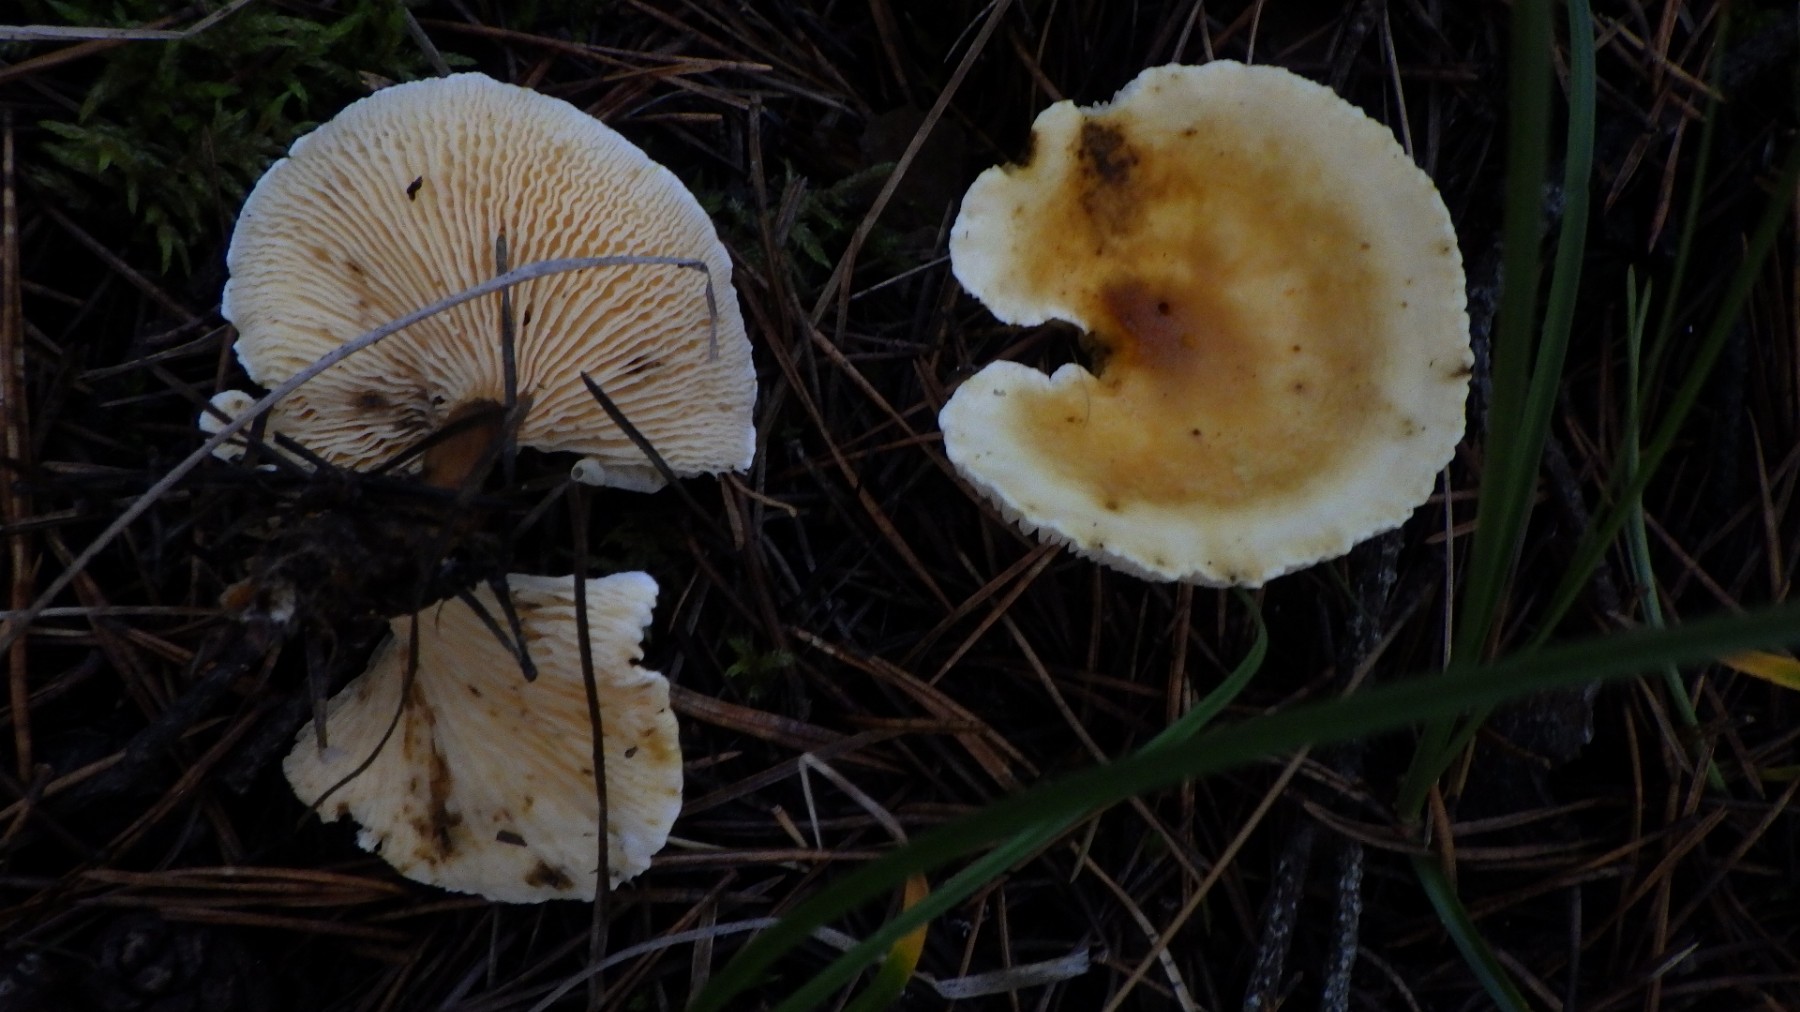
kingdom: Fungi
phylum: Basidiomycota
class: Agaricomycetes
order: Boletales
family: Hygrophoropsidaceae
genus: Hygrophoropsis
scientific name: Hygrophoropsis
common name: orangekantarel
